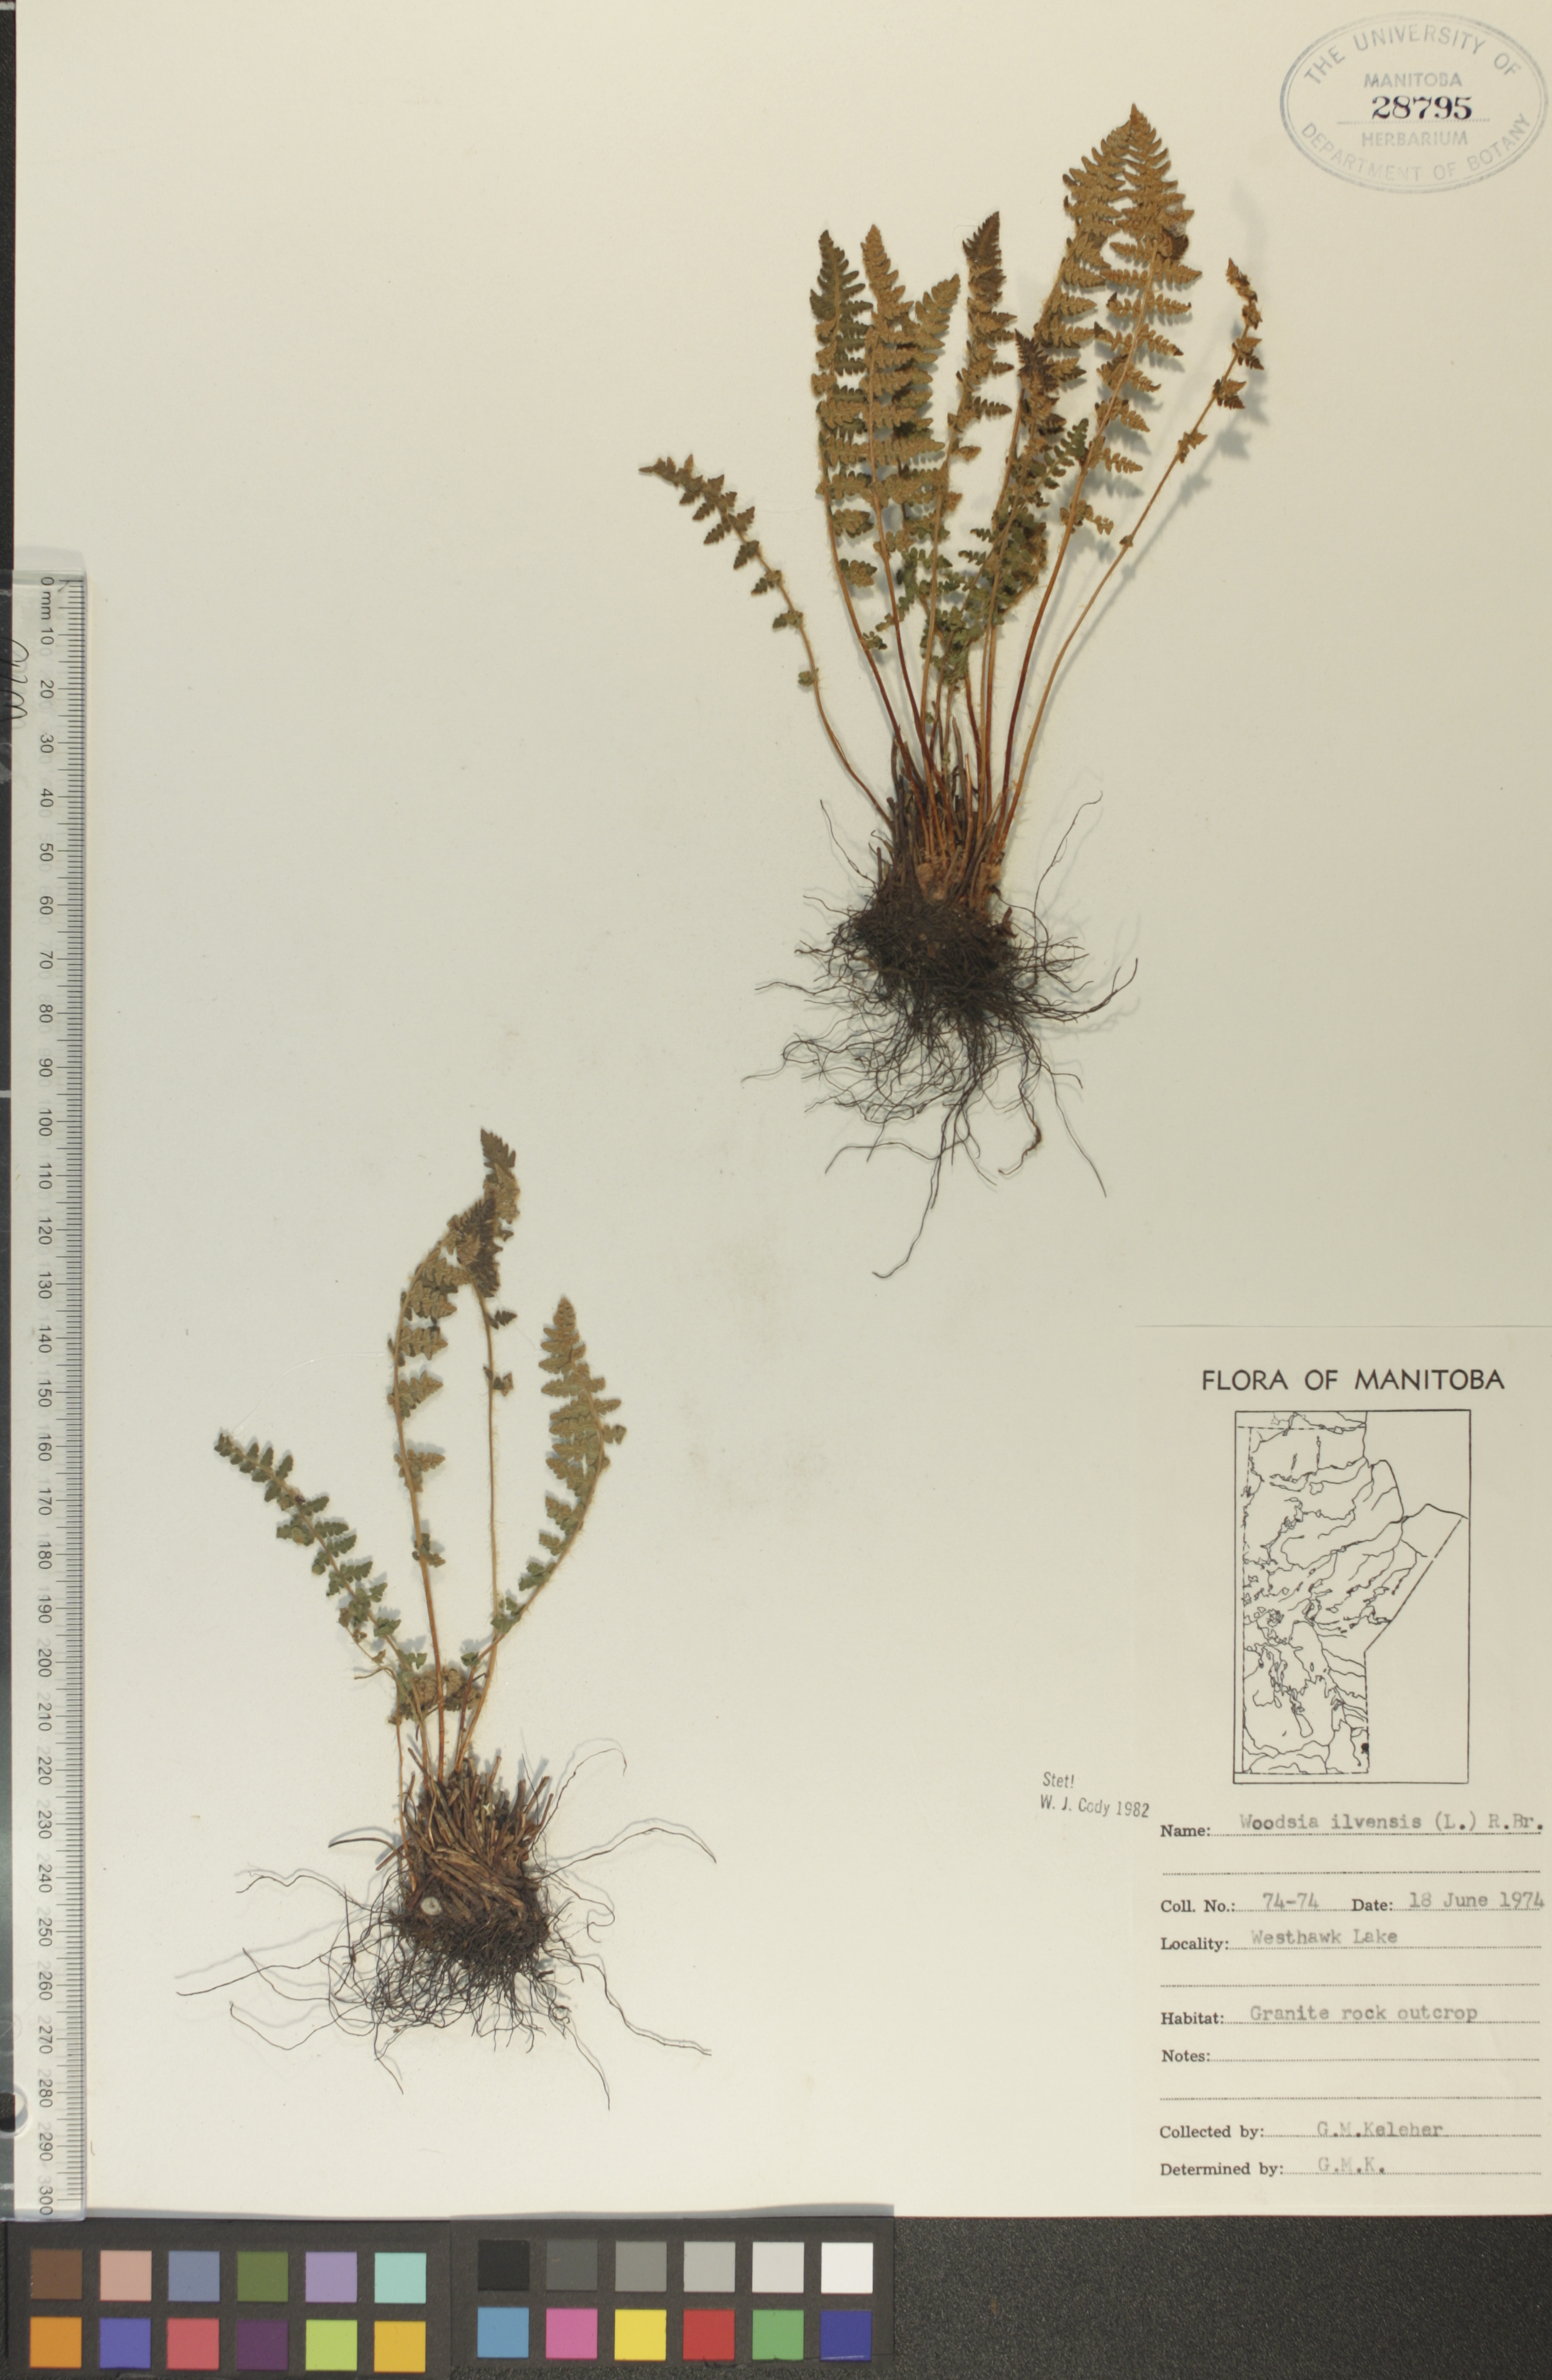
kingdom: Plantae
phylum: Tracheophyta
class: Polypodiopsida
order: Polypodiales
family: Woodsiaceae
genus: Woodsia
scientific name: Woodsia ilvensis
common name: Fragrant woodsia
